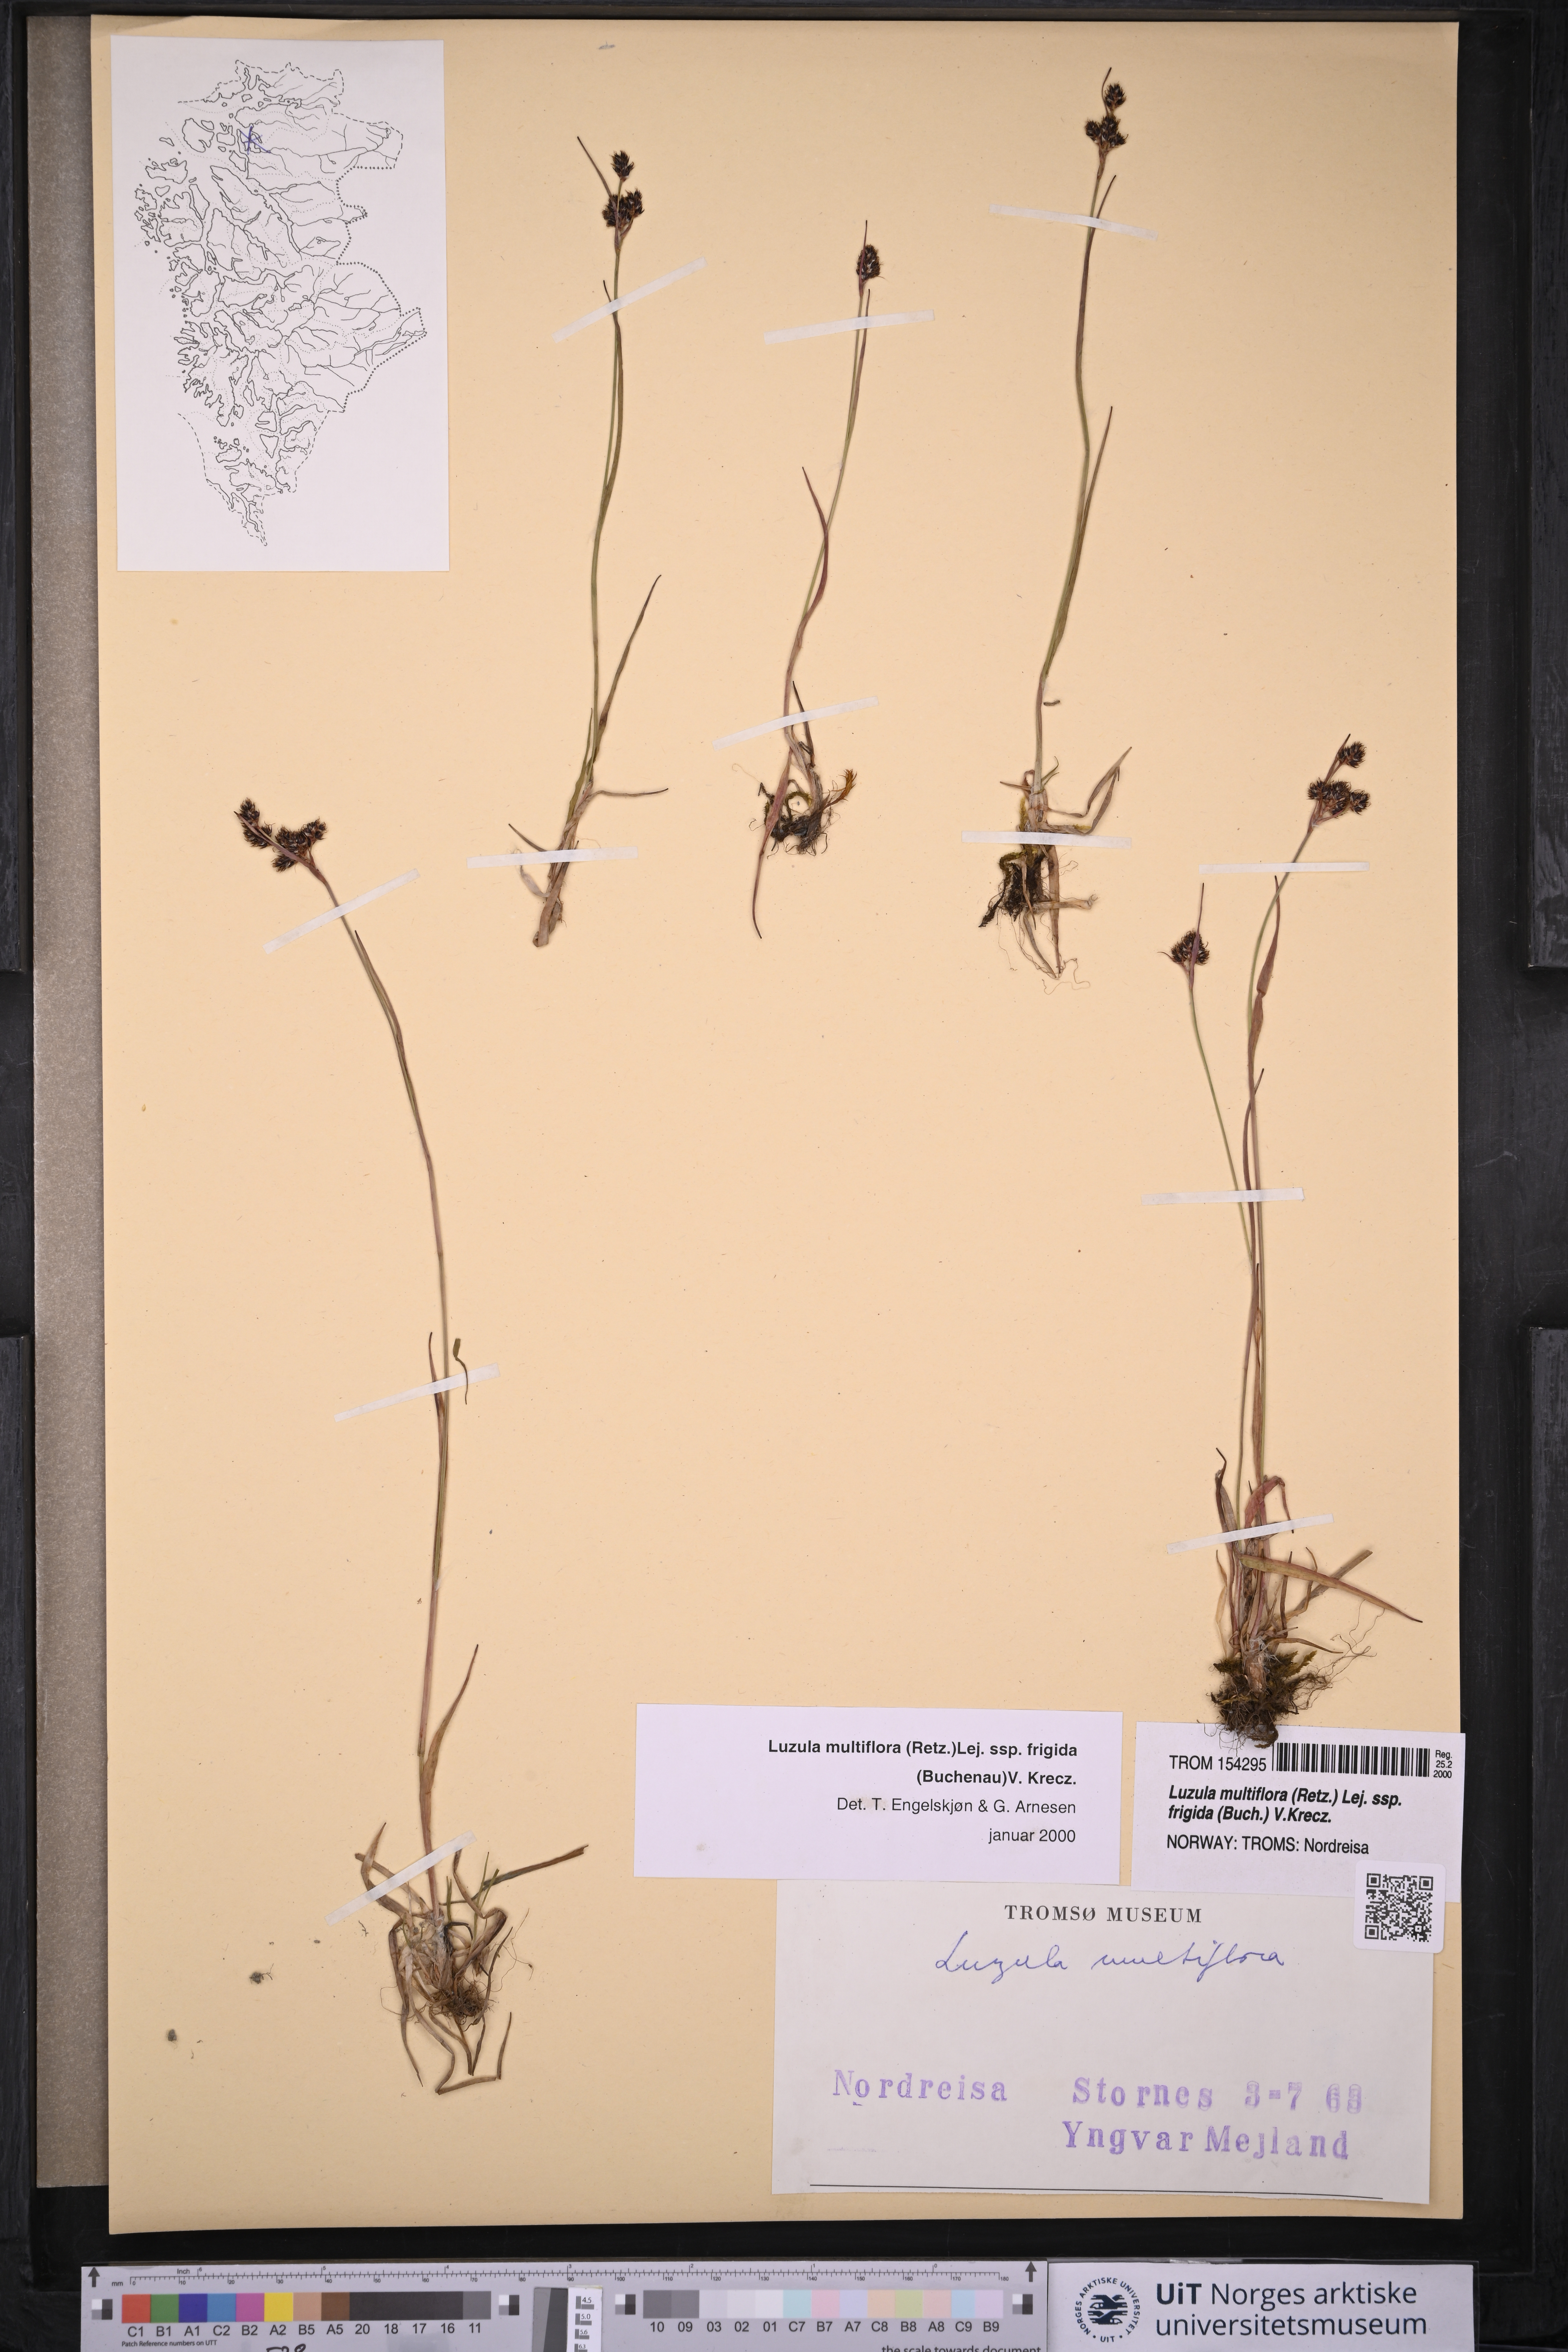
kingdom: Plantae
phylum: Tracheophyta
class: Liliopsida
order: Poales
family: Juncaceae
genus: Luzula
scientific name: Luzula multiflora
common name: Heath wood-rush
